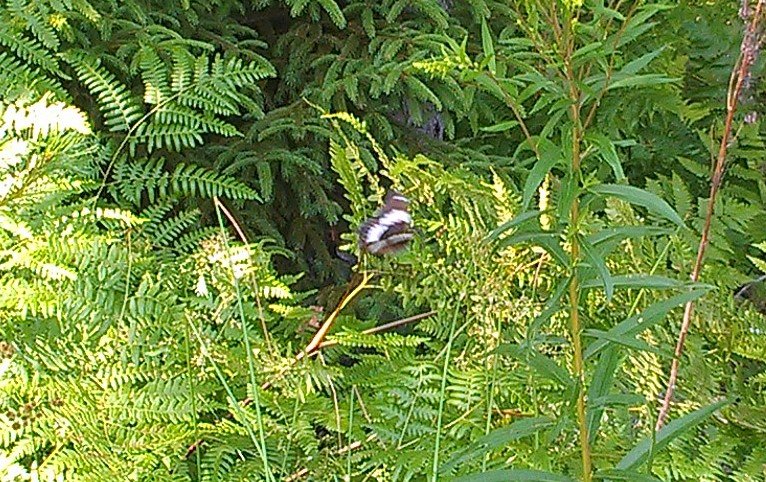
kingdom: Animalia
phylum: Arthropoda
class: Insecta
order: Lepidoptera
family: Nymphalidae
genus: Limenitis
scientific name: Limenitis arthemis
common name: Red-spotted Admiral
